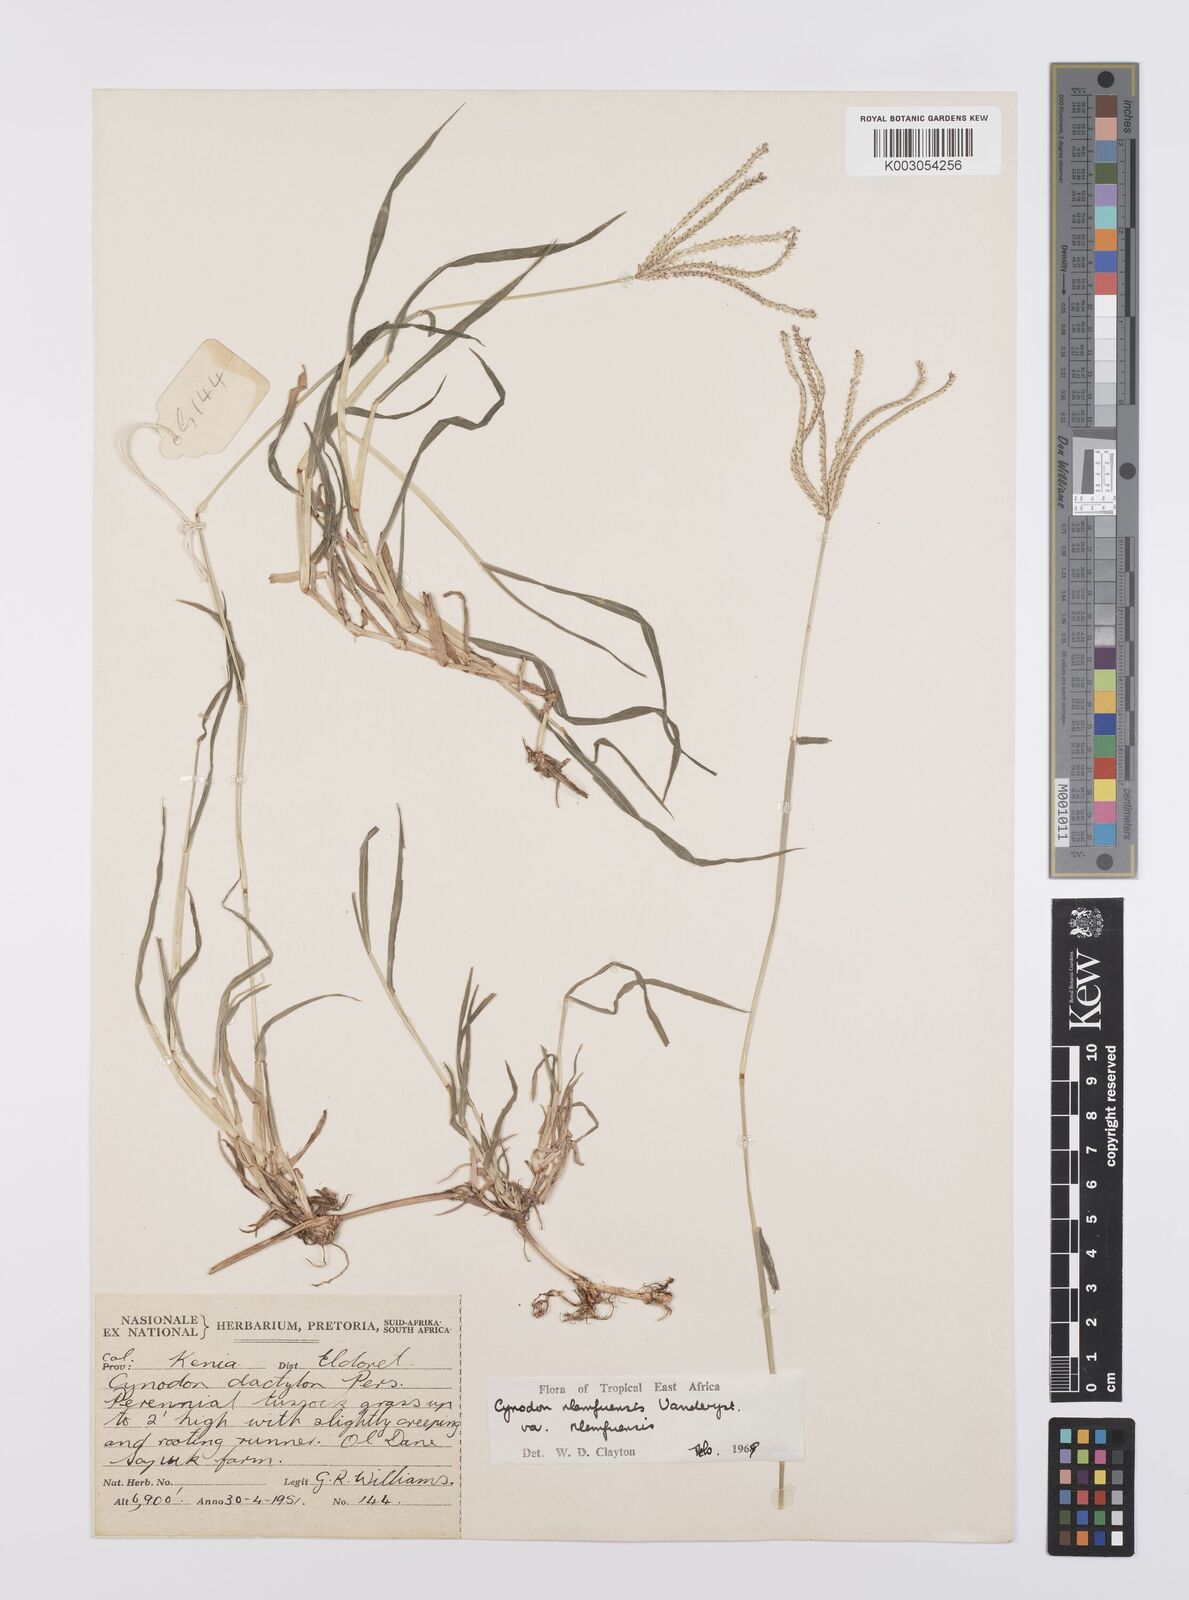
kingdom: Plantae
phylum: Tracheophyta
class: Liliopsida
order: Poales
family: Poaceae
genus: Cynodon
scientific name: Cynodon nlemfuensis
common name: African bermudagrass
